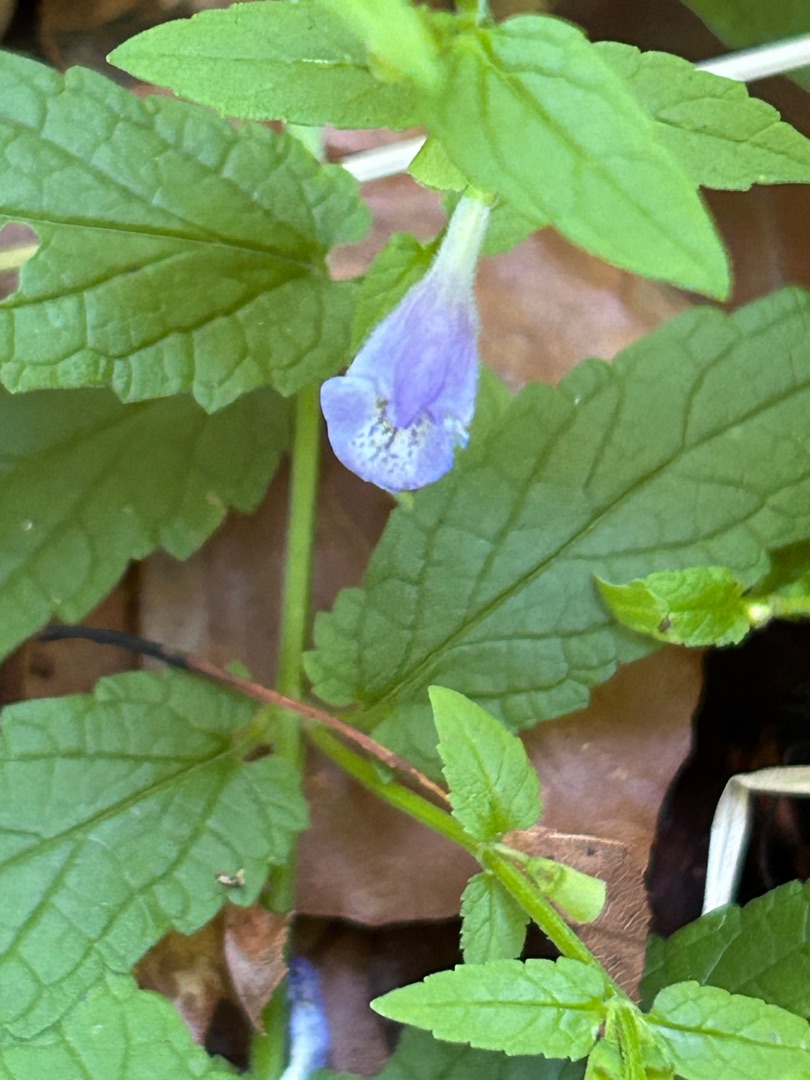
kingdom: Plantae
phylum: Tracheophyta
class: Magnoliopsida
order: Lamiales
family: Lamiaceae
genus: Scutellaria
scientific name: Scutellaria galericulata
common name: Almindelig skjolddrager
